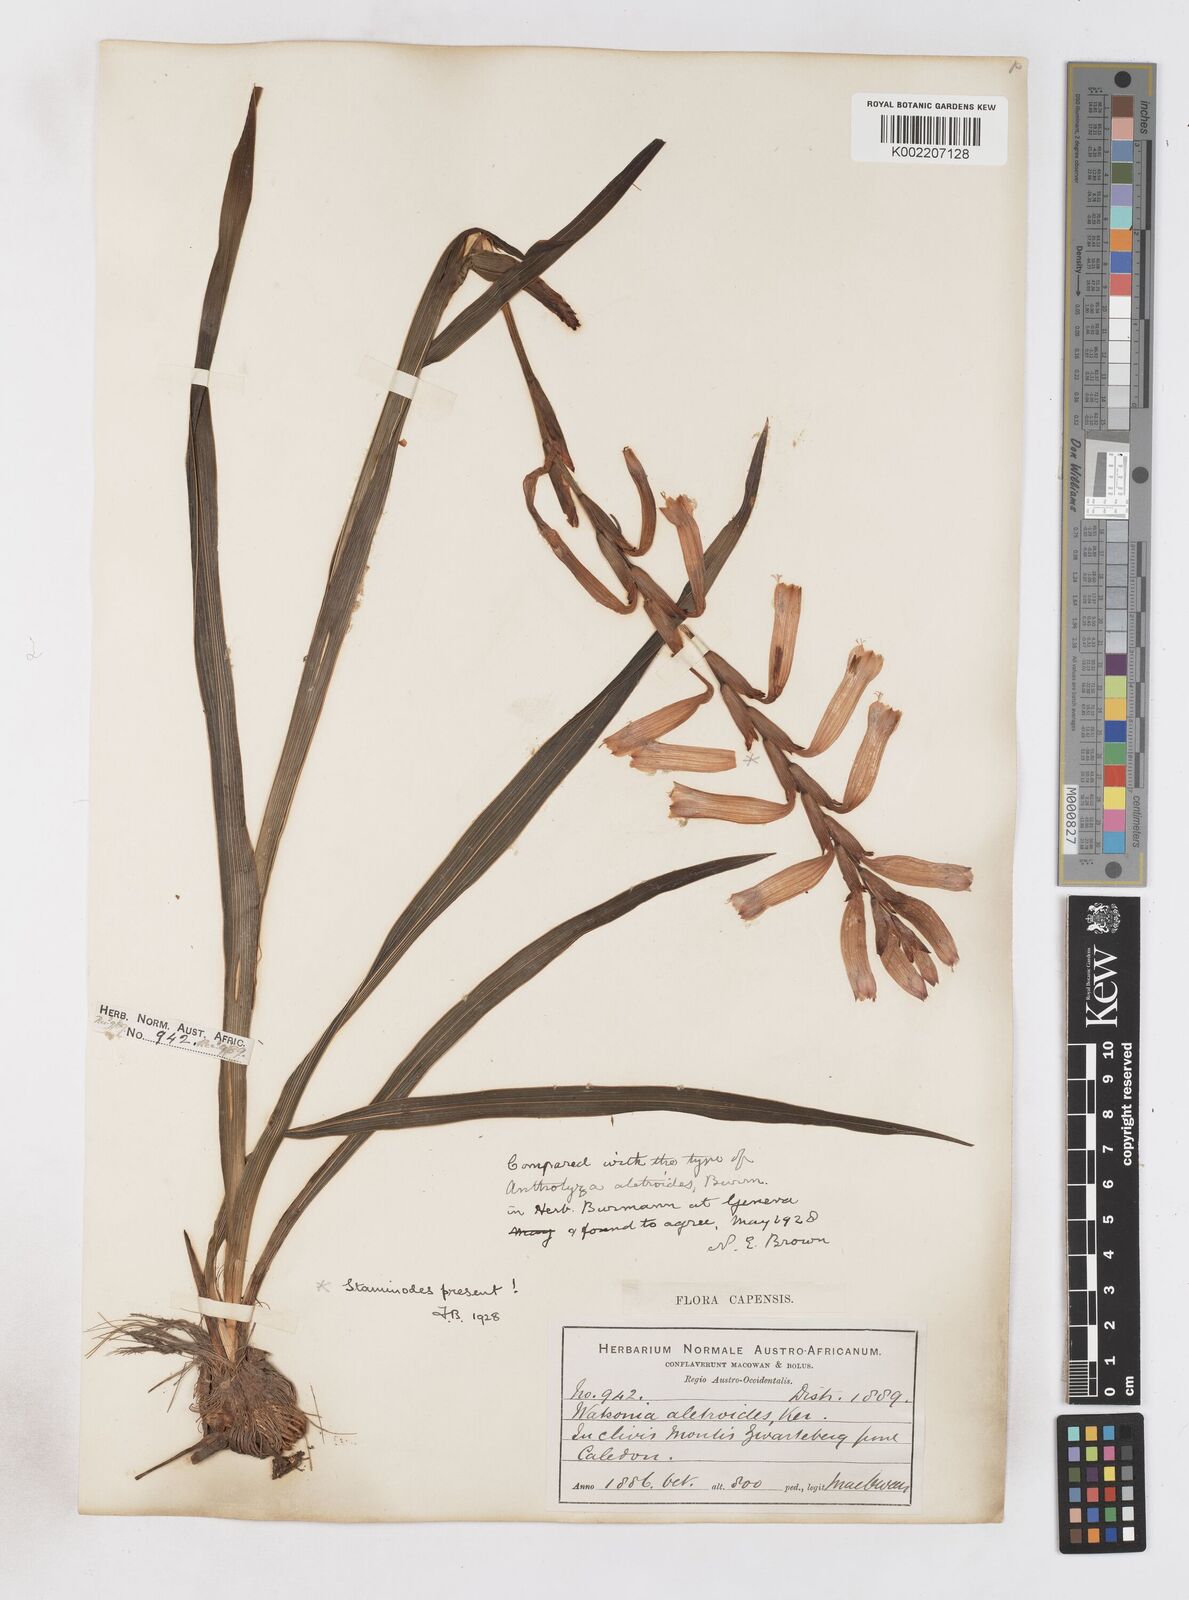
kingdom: Plantae
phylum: Tracheophyta
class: Liliopsida
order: Asparagales
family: Iridaceae
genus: Watsonia
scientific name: Watsonia aletroides
